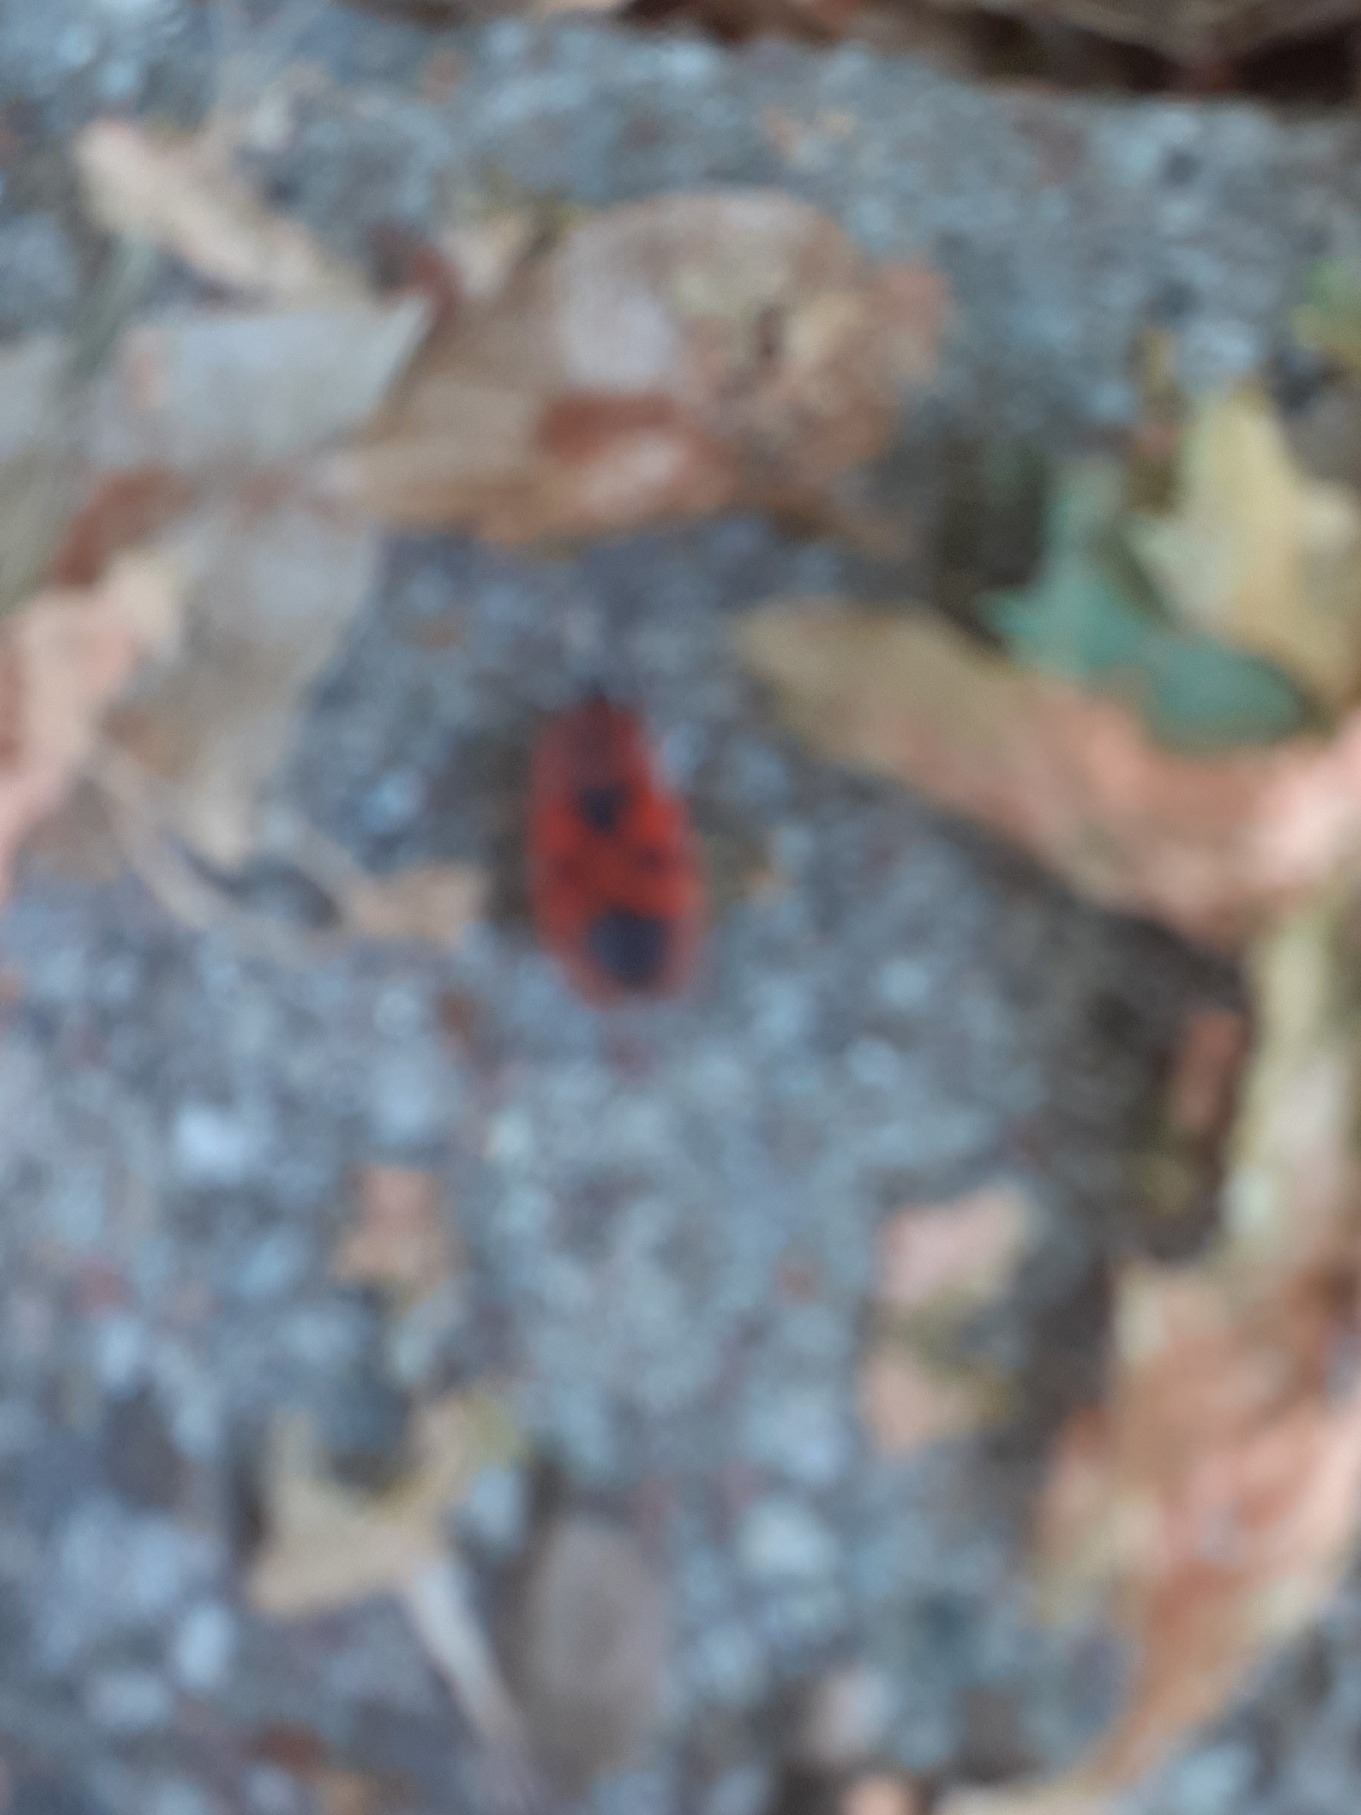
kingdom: Animalia
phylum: Arthropoda
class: Insecta
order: Hemiptera
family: Pyrrhocoridae
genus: Pyrrhocoris
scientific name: Pyrrhocoris apterus
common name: Ildtæge
